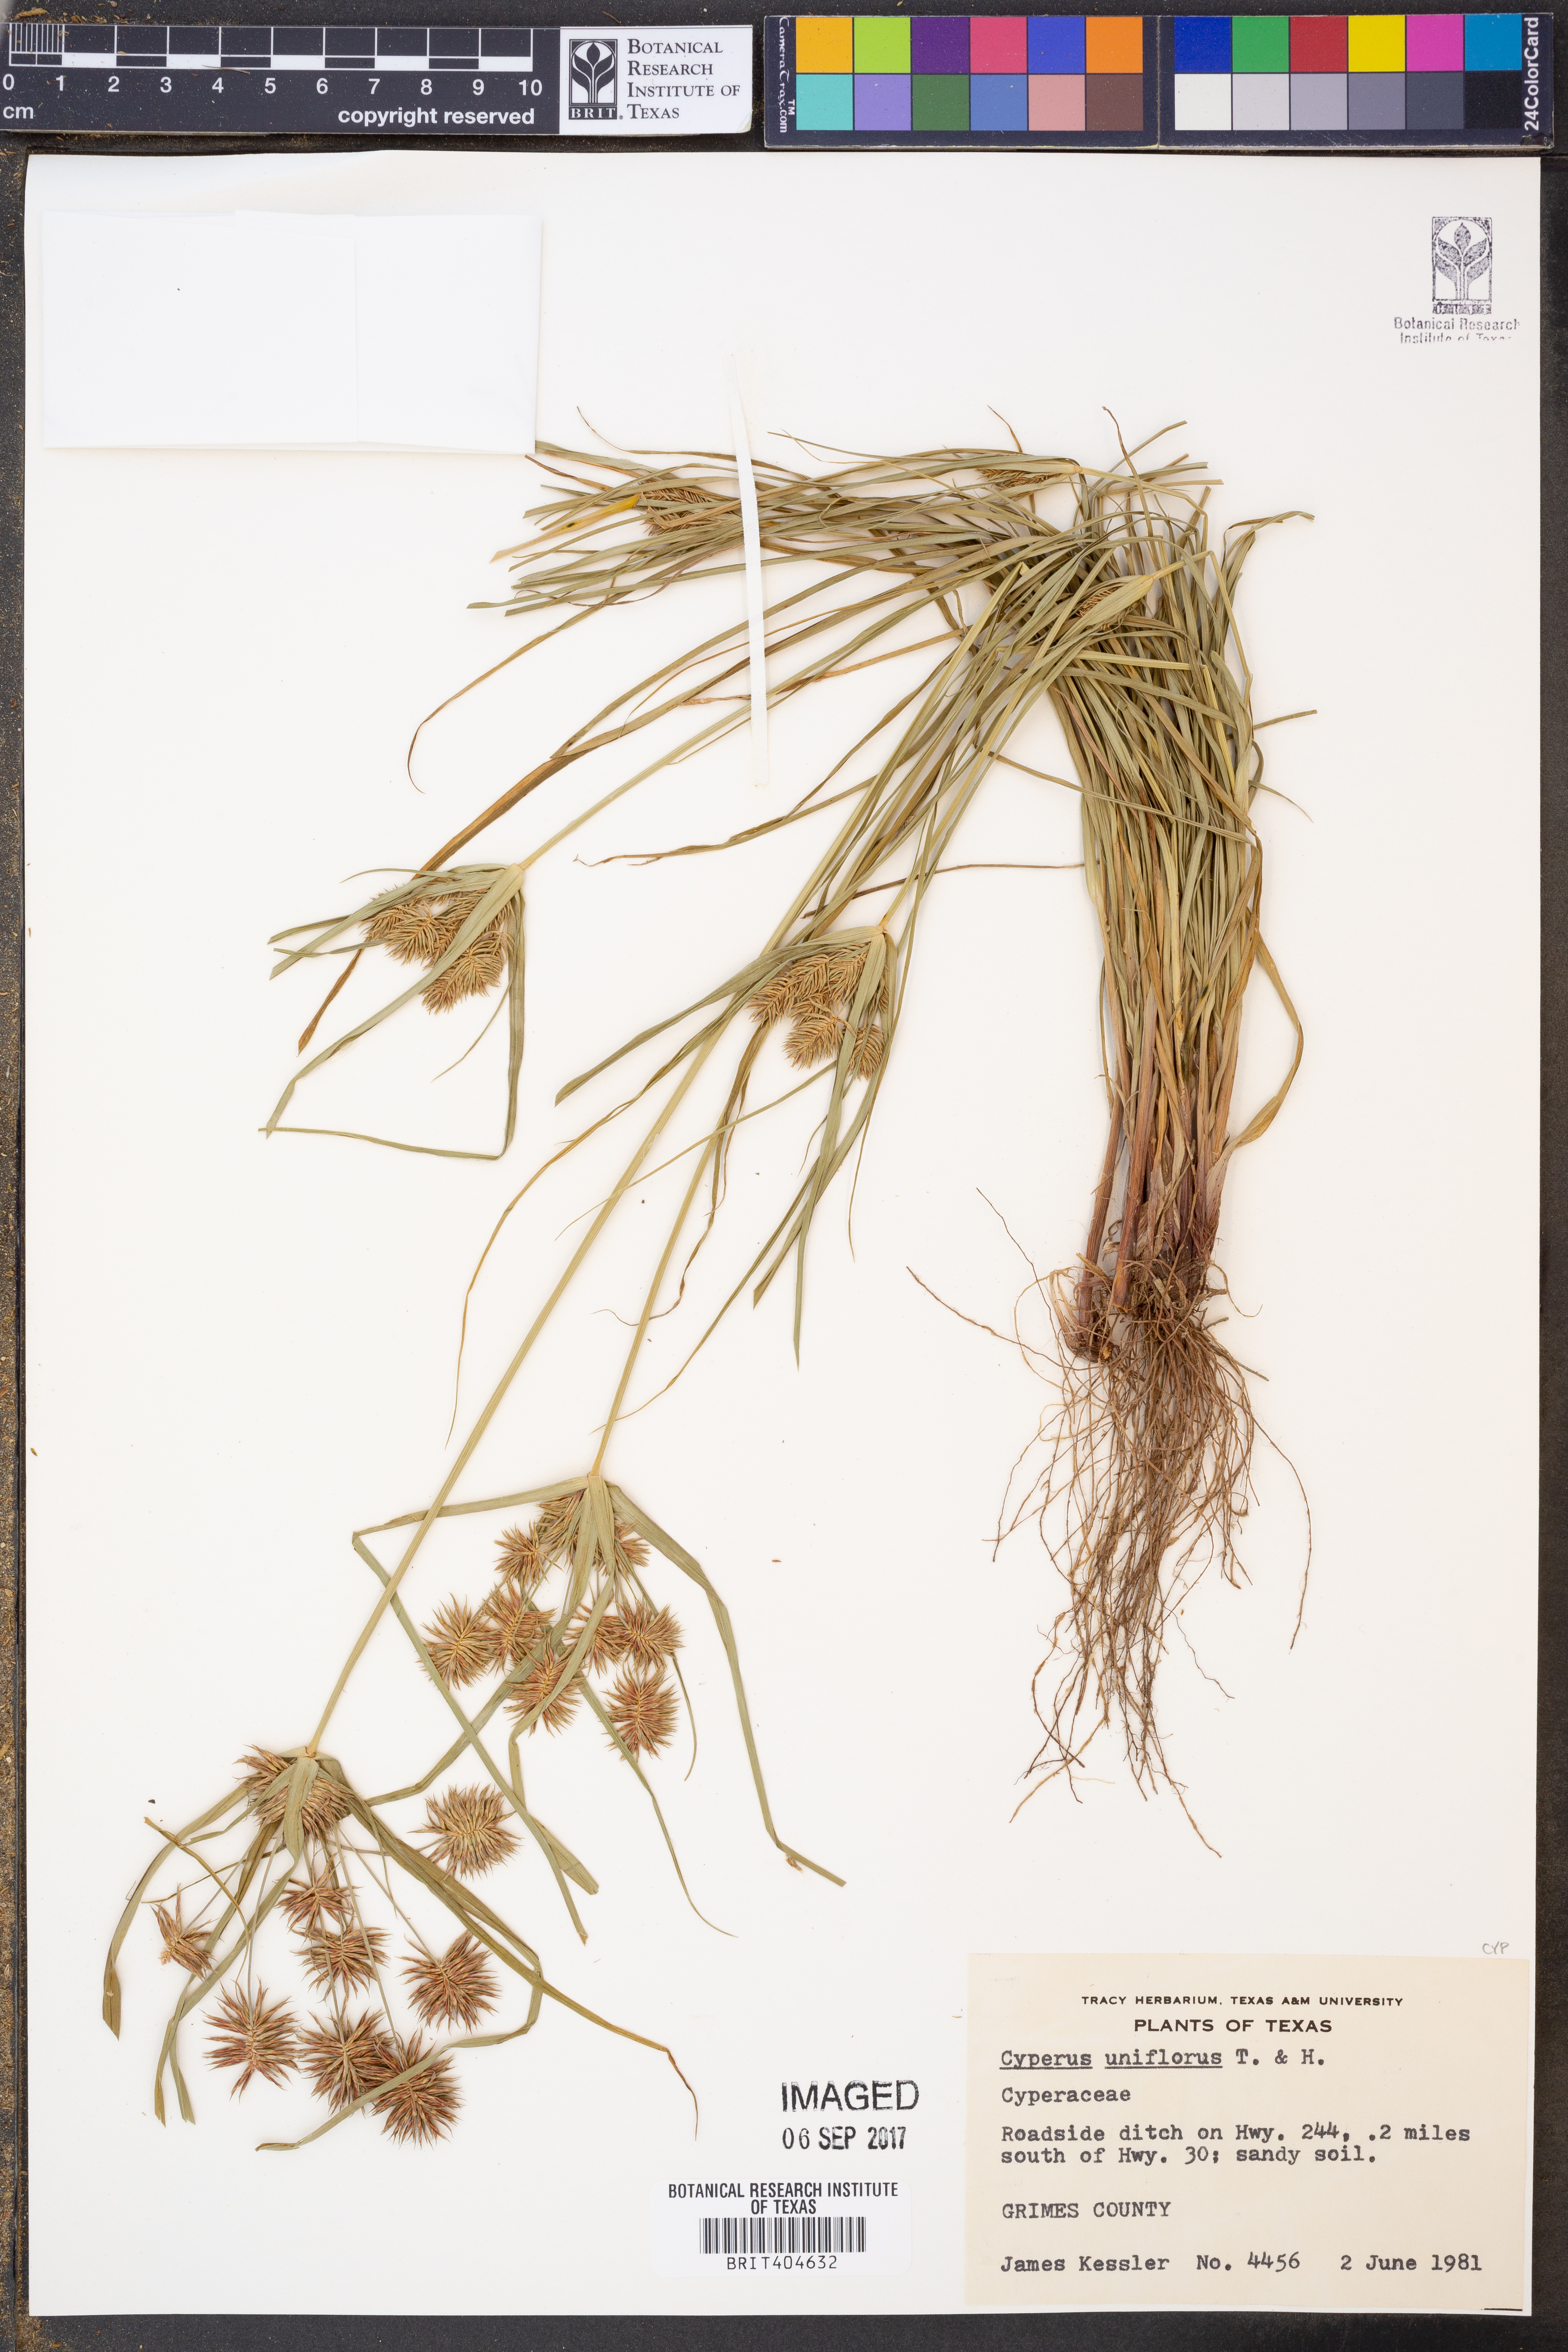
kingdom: Plantae
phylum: Tracheophyta
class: Liliopsida
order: Poales
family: Cyperaceae
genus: Cyperus
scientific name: Cyperus retroflexus
